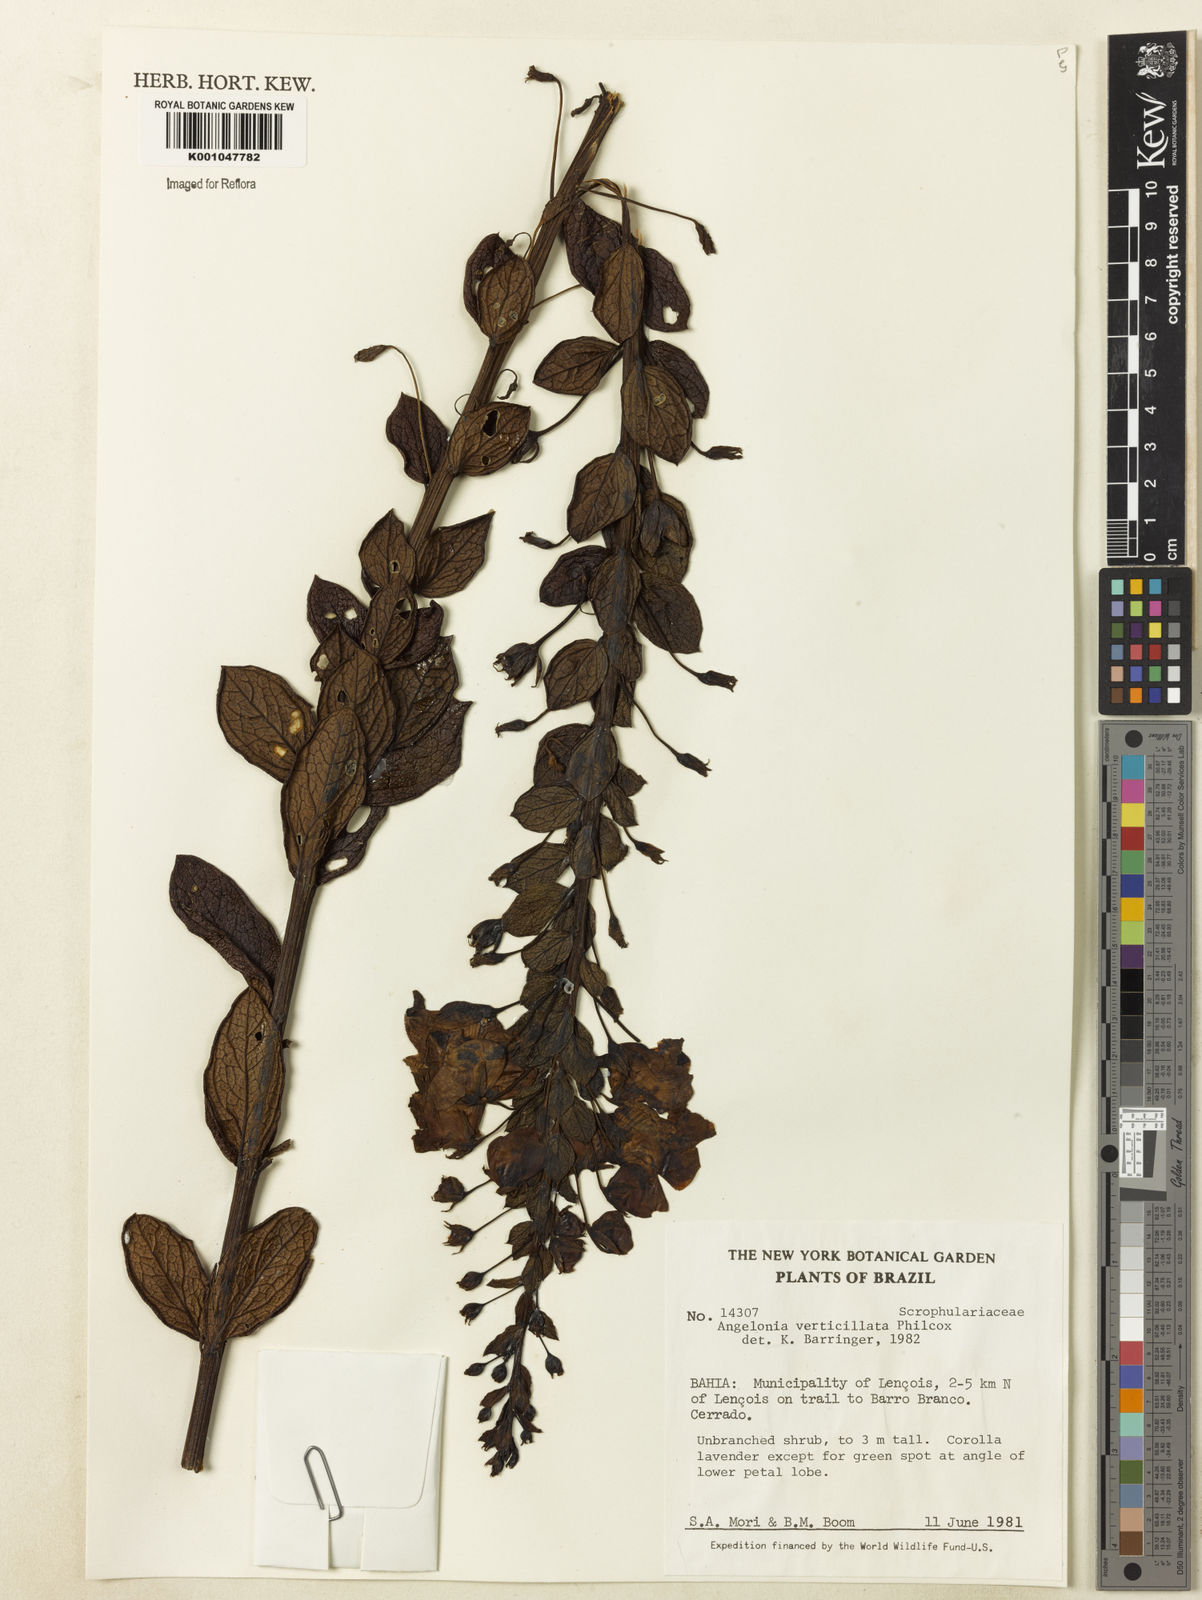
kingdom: Plantae
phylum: Tracheophyta
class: Magnoliopsida
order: Lamiales
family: Plantaginaceae
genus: Angelonia
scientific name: Angelonia verticillata
